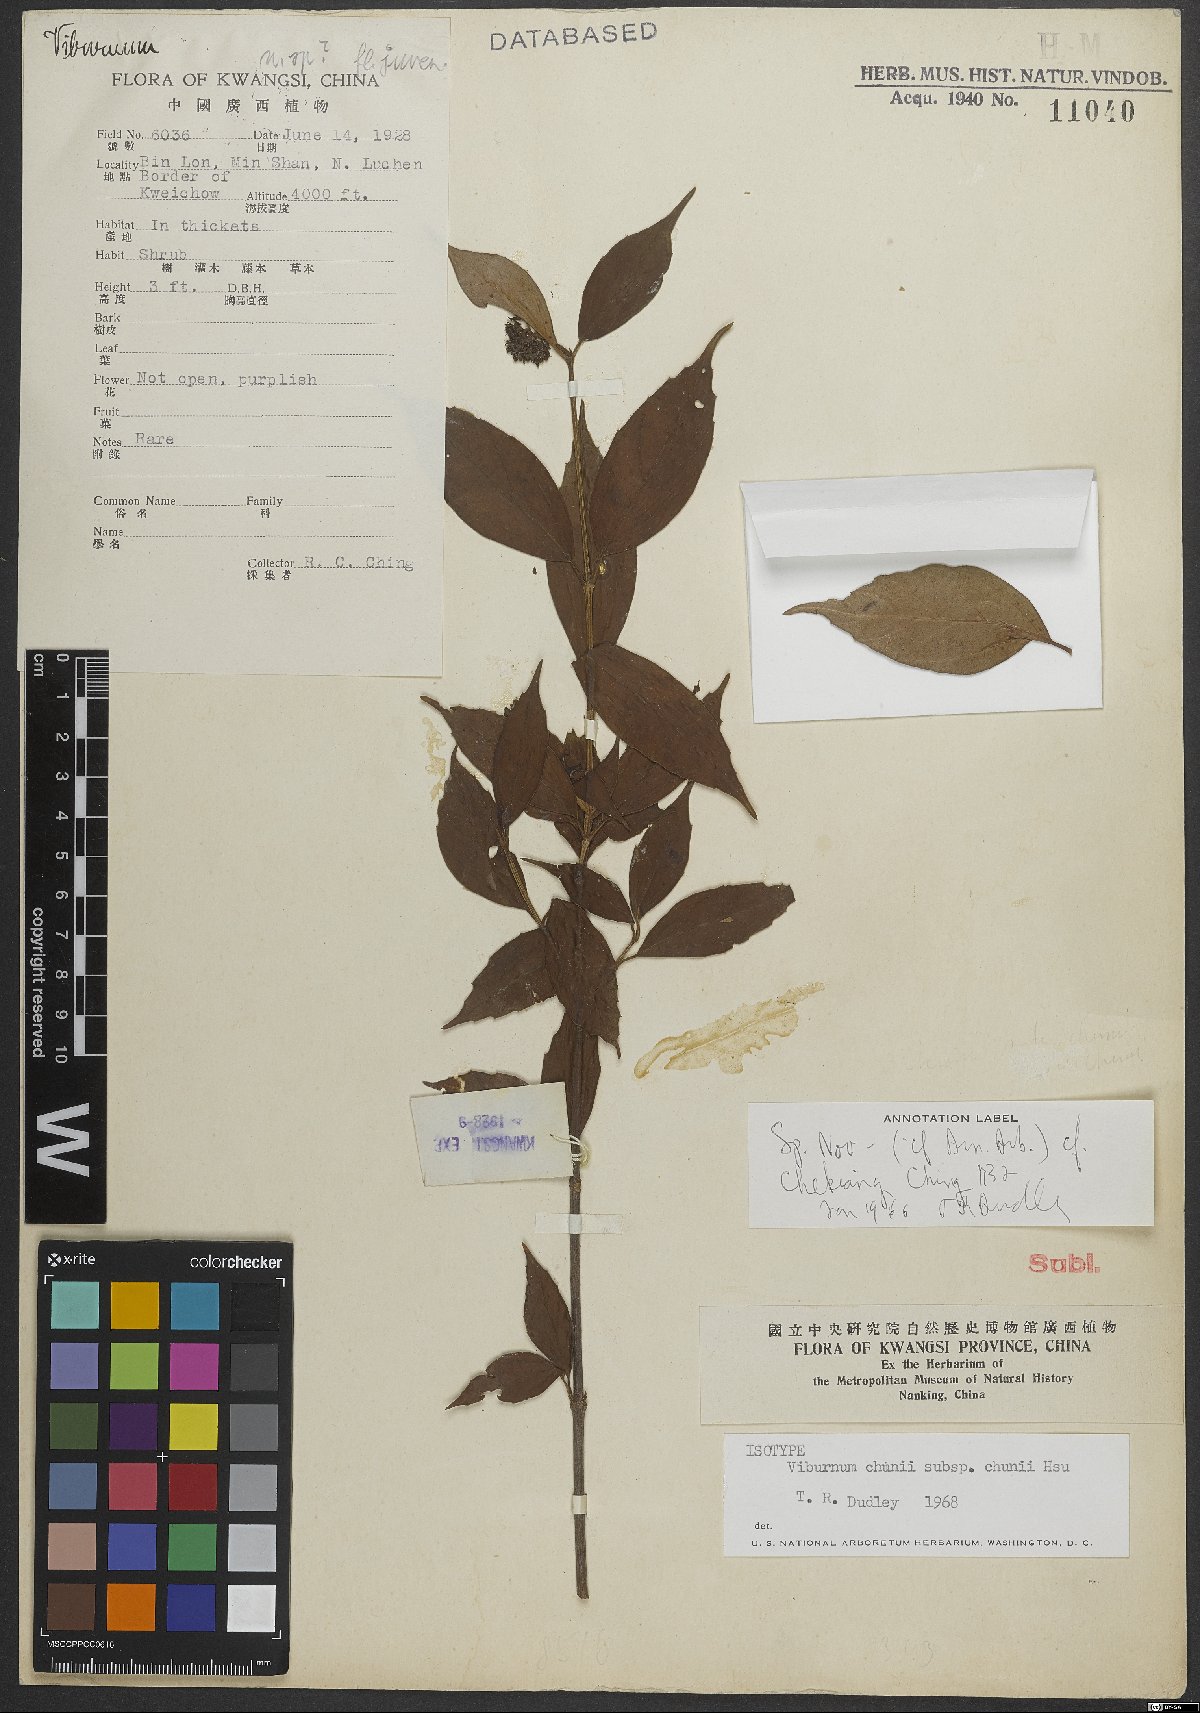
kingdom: Plantae
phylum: Tracheophyta
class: Magnoliopsida
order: Dipsacales
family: Viburnaceae
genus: Viburnum
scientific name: Viburnum chunii
